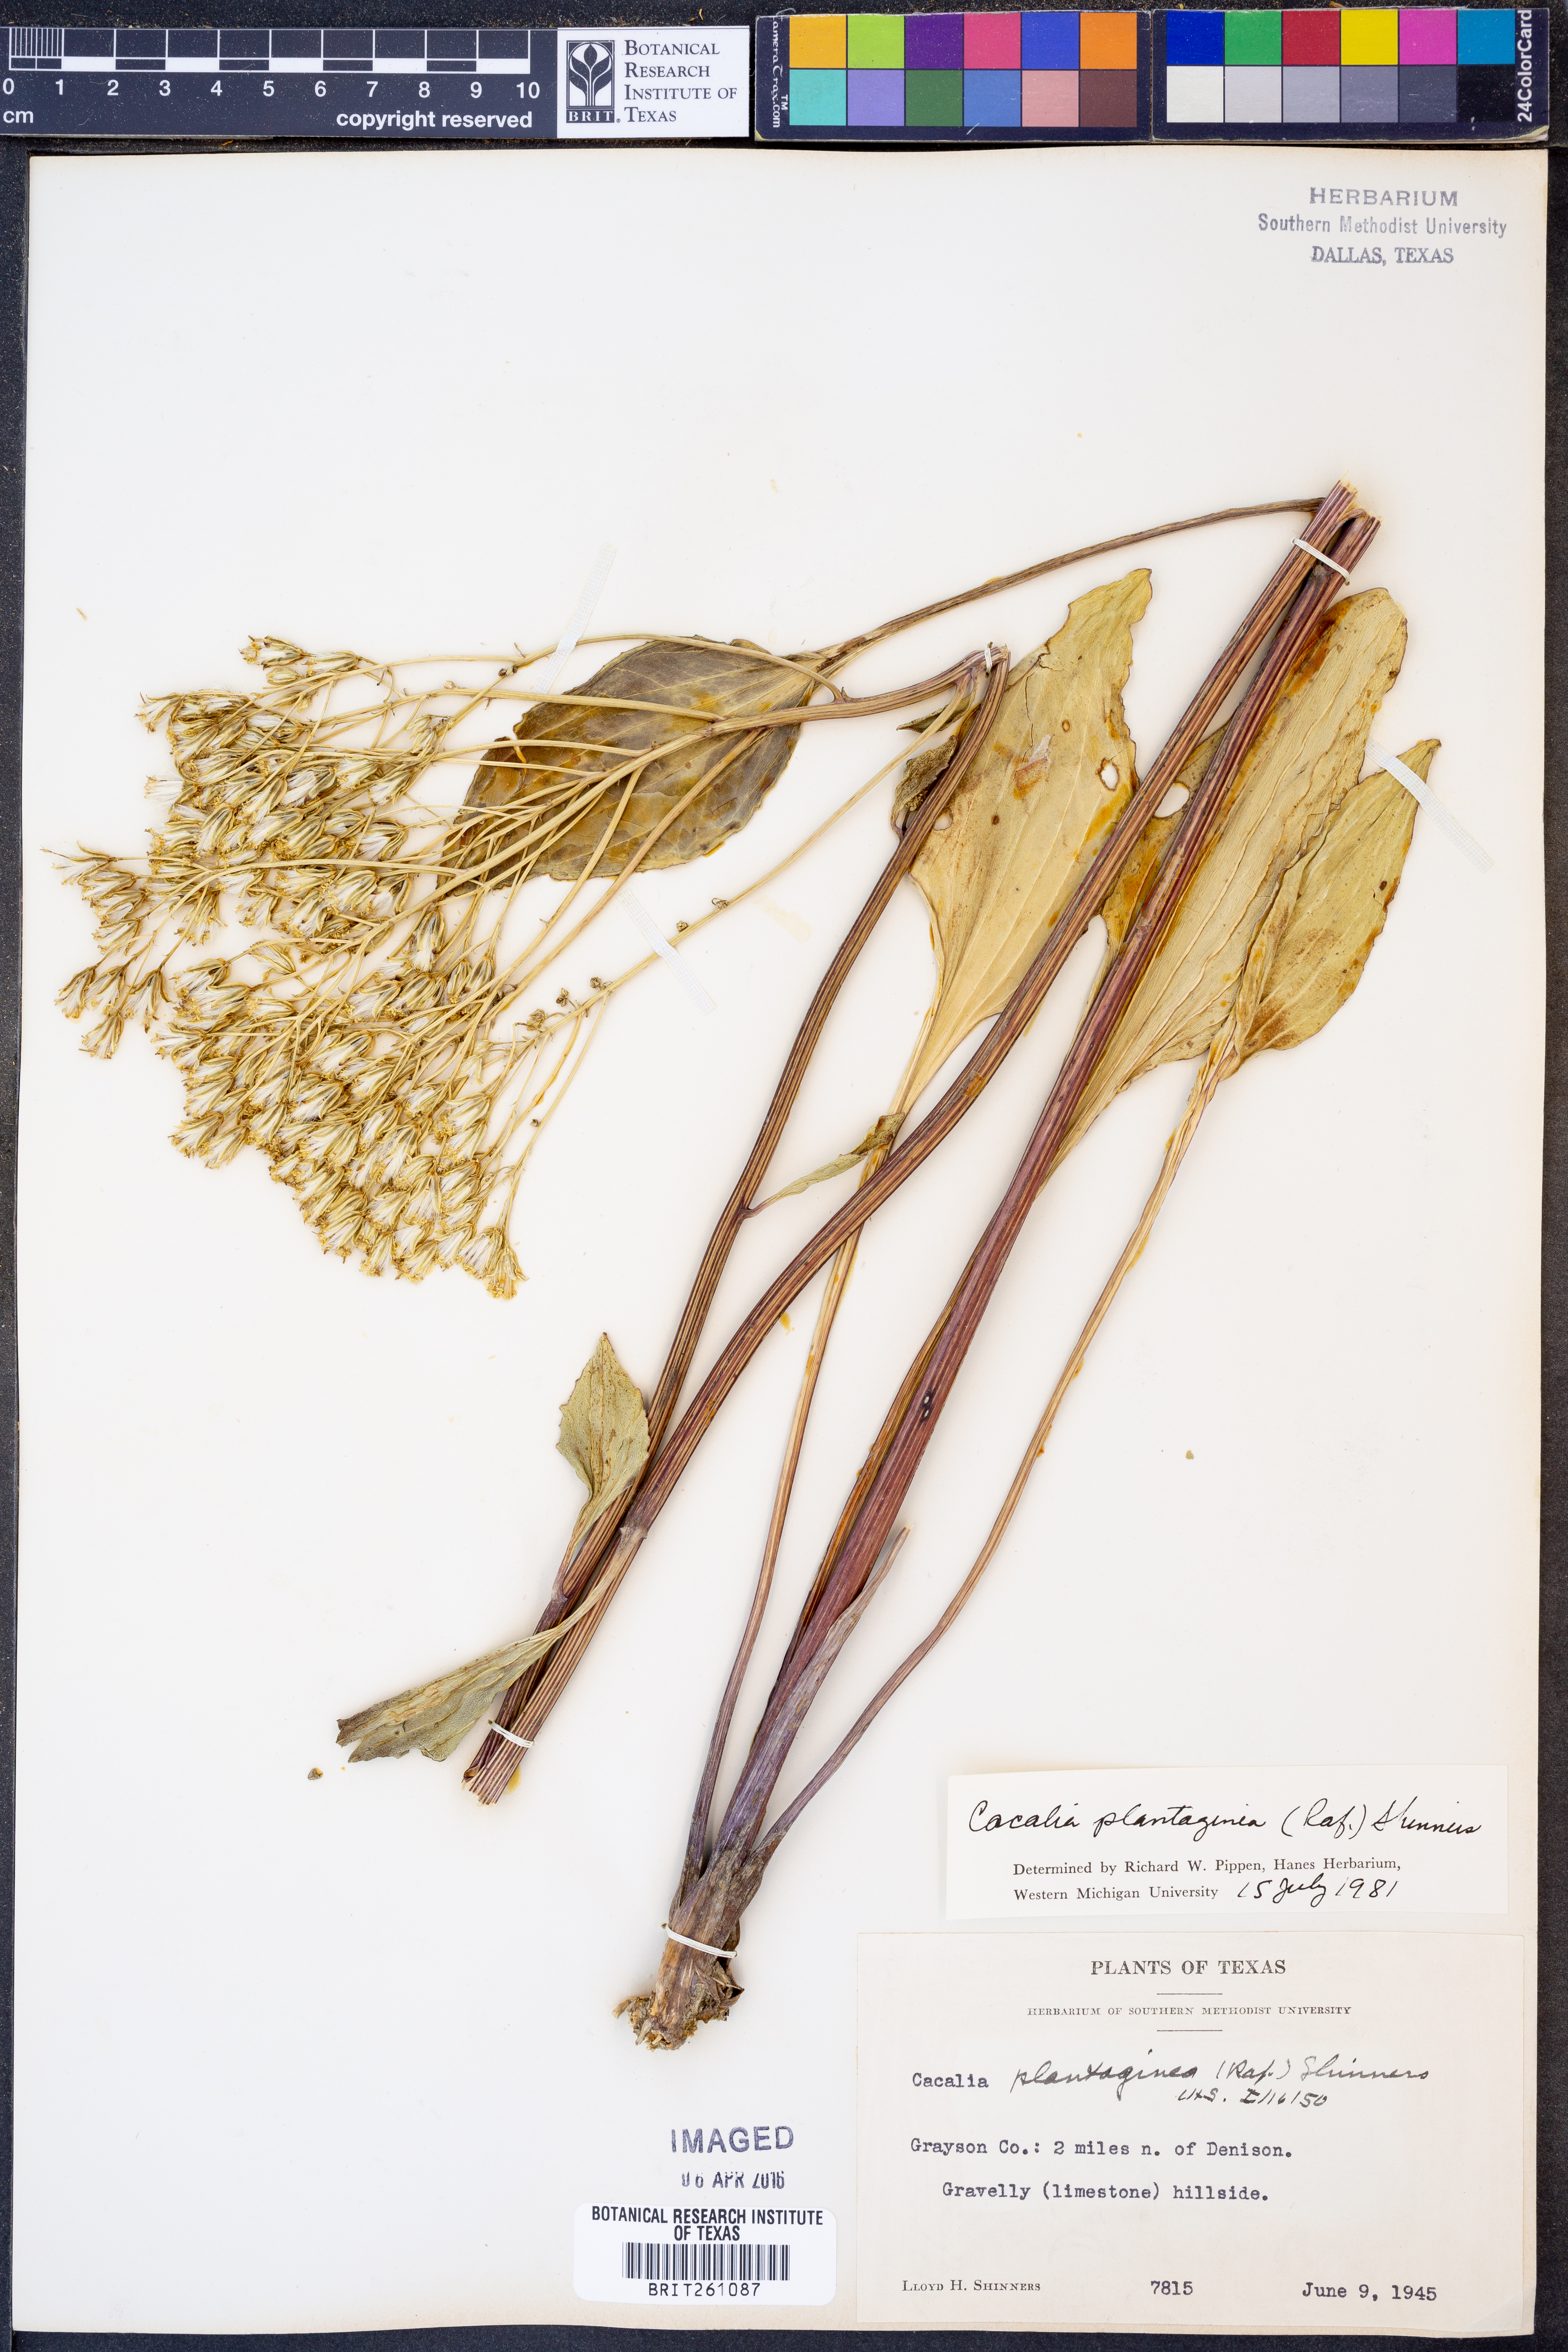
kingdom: Plantae
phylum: Tracheophyta
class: Magnoliopsida
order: Asterales
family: Asteraceae
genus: Arnoglossum
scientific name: Arnoglossum plantagineum
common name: Groove-stemmed indian-plantain
